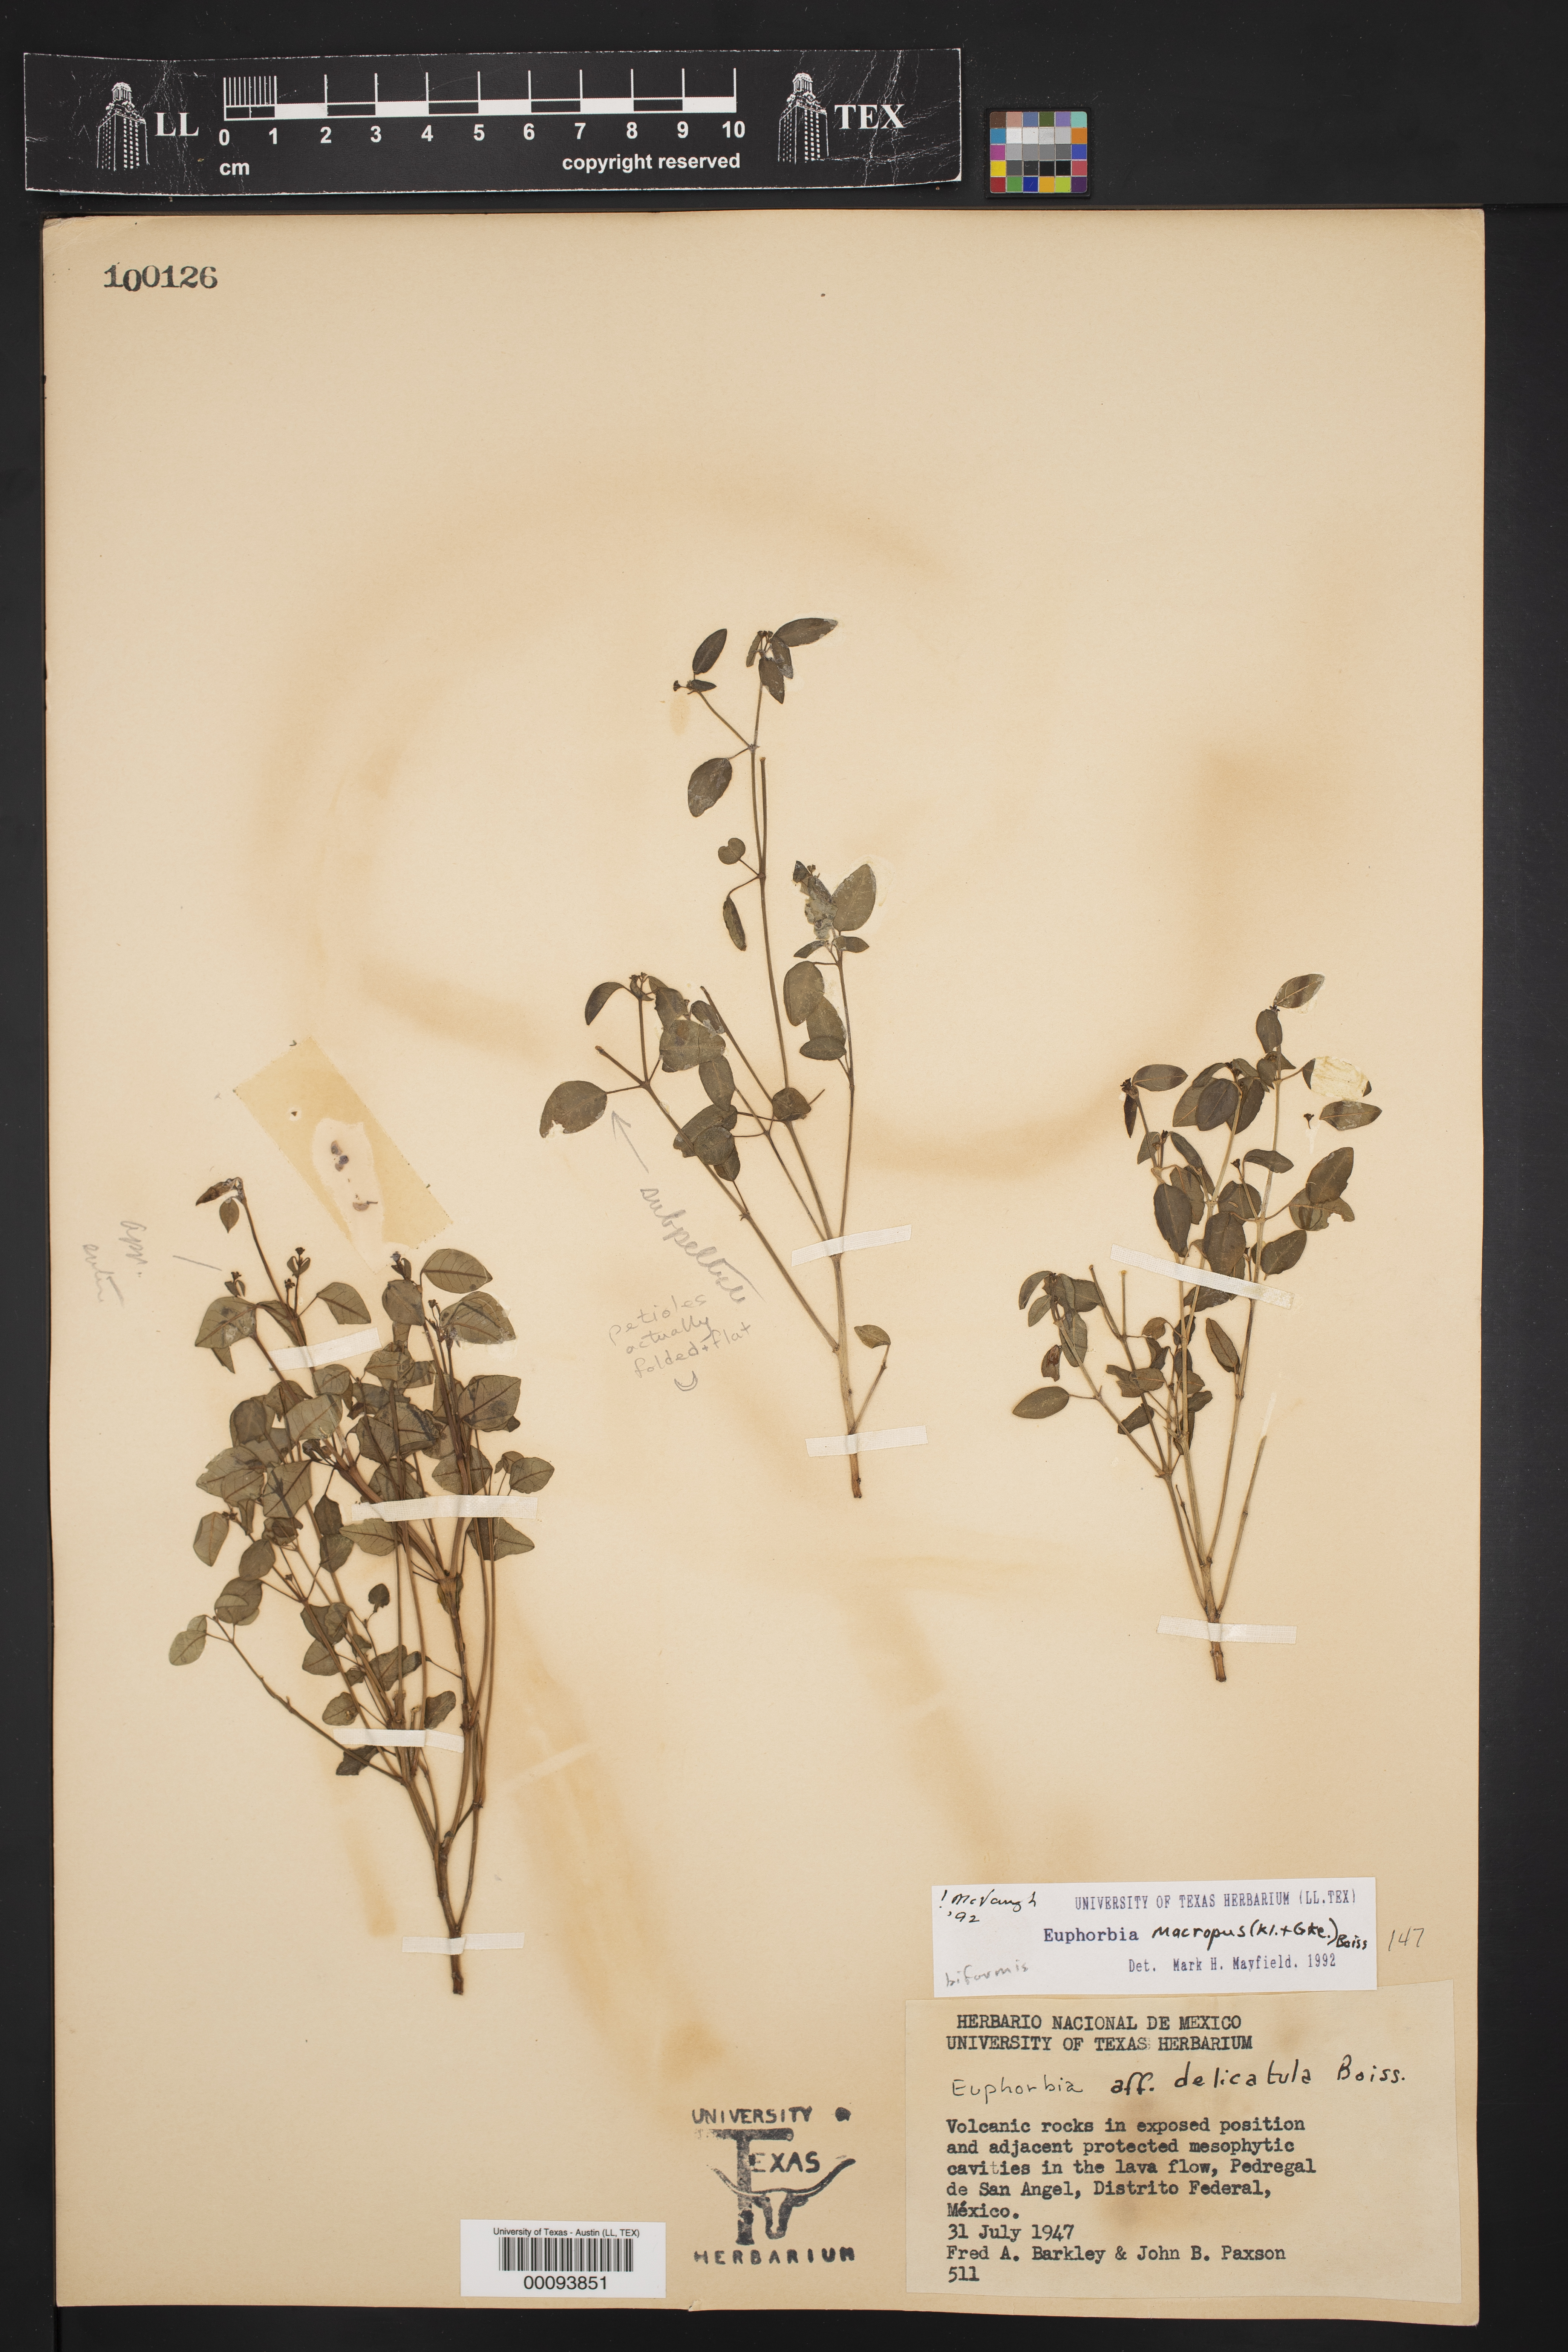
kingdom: Plantae
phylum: Tracheophyta
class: Magnoliopsida
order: Malpighiales
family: Euphorbiaceae
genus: Euphorbia
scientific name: Euphorbia macropus
